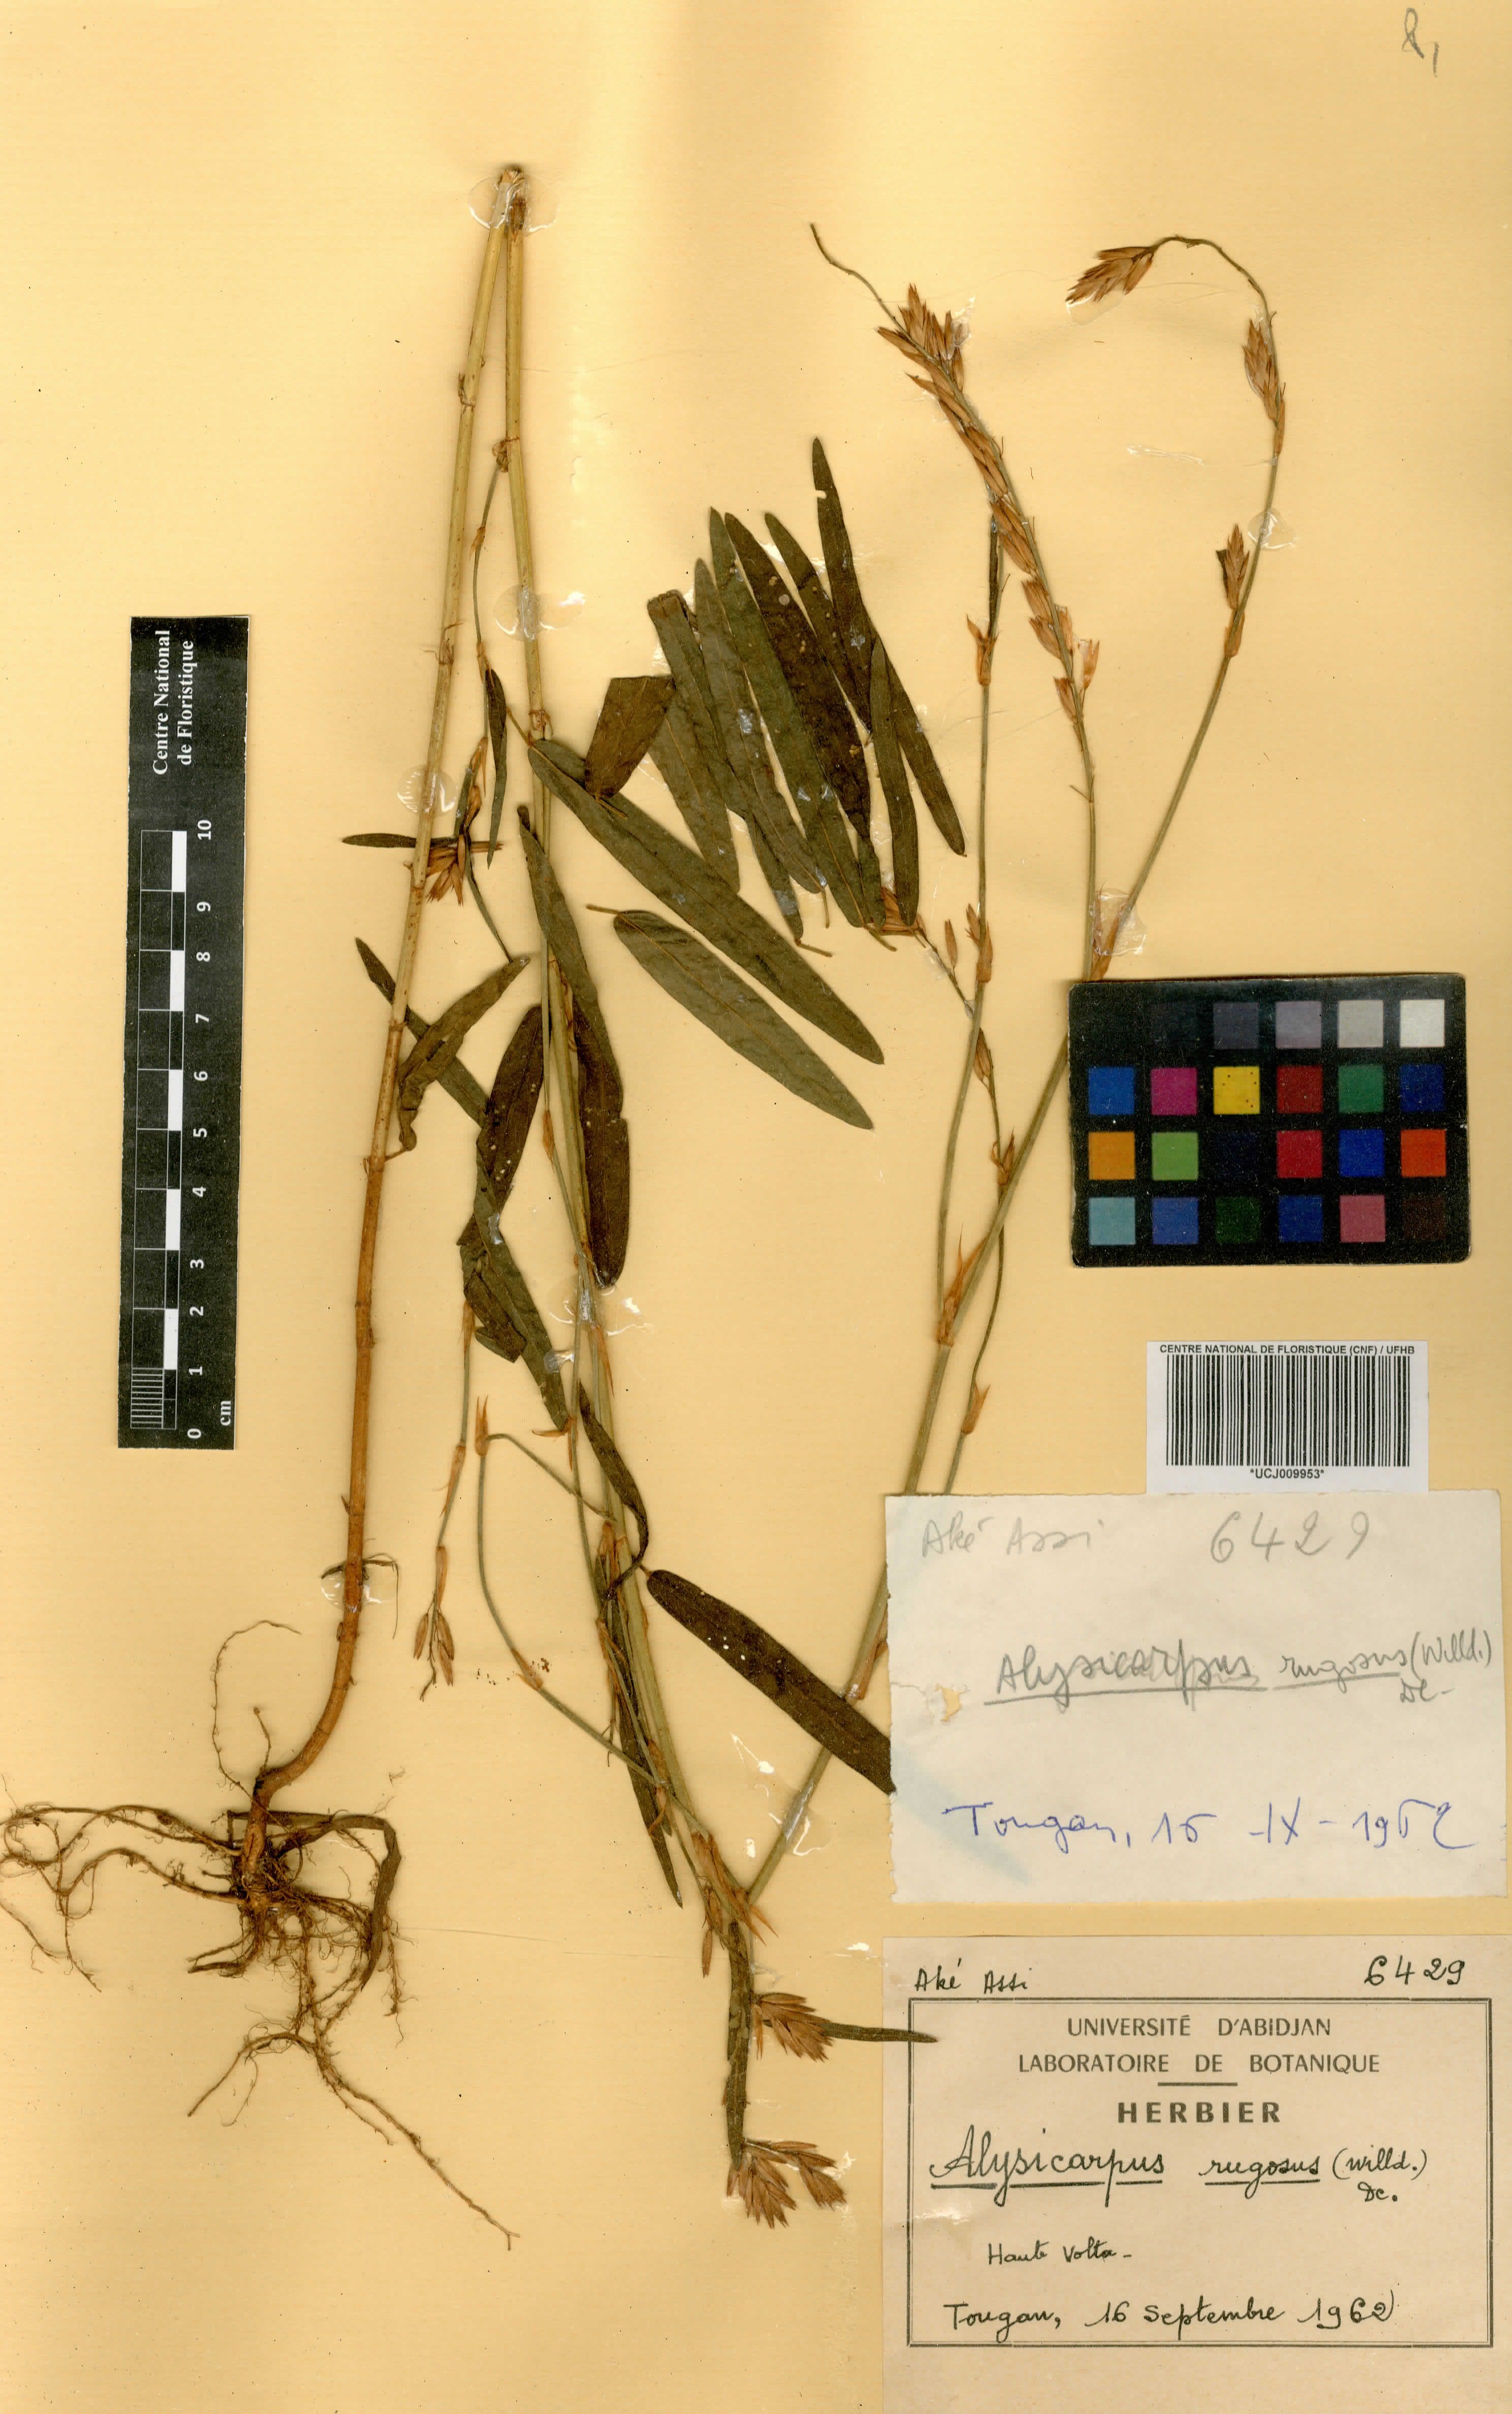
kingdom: Plantae
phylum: Tracheophyta
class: Magnoliopsida
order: Fabales
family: Fabaceae
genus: Alysicarpus
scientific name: Alysicarpus rugosus
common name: Red moneywort
